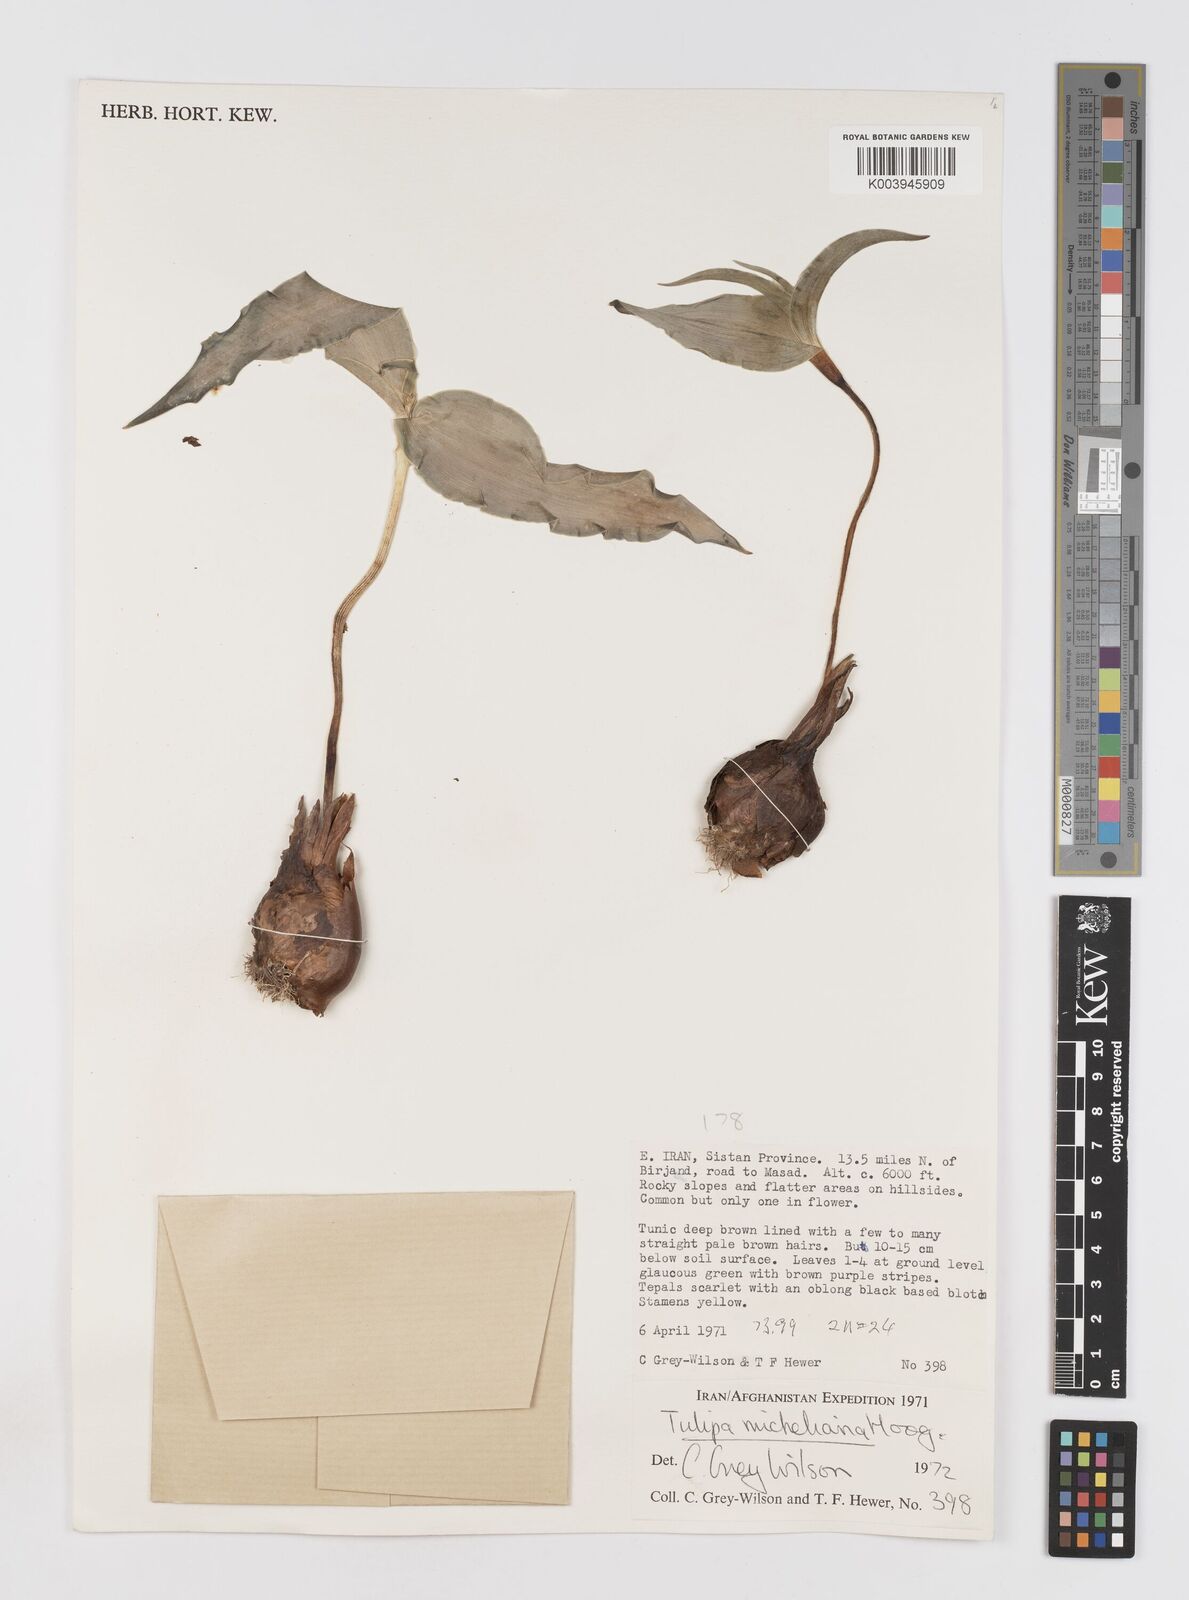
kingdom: Plantae
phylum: Tracheophyta
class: Liliopsida
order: Liliales
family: Liliaceae
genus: Tulipa
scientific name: Tulipa undulatifolia
